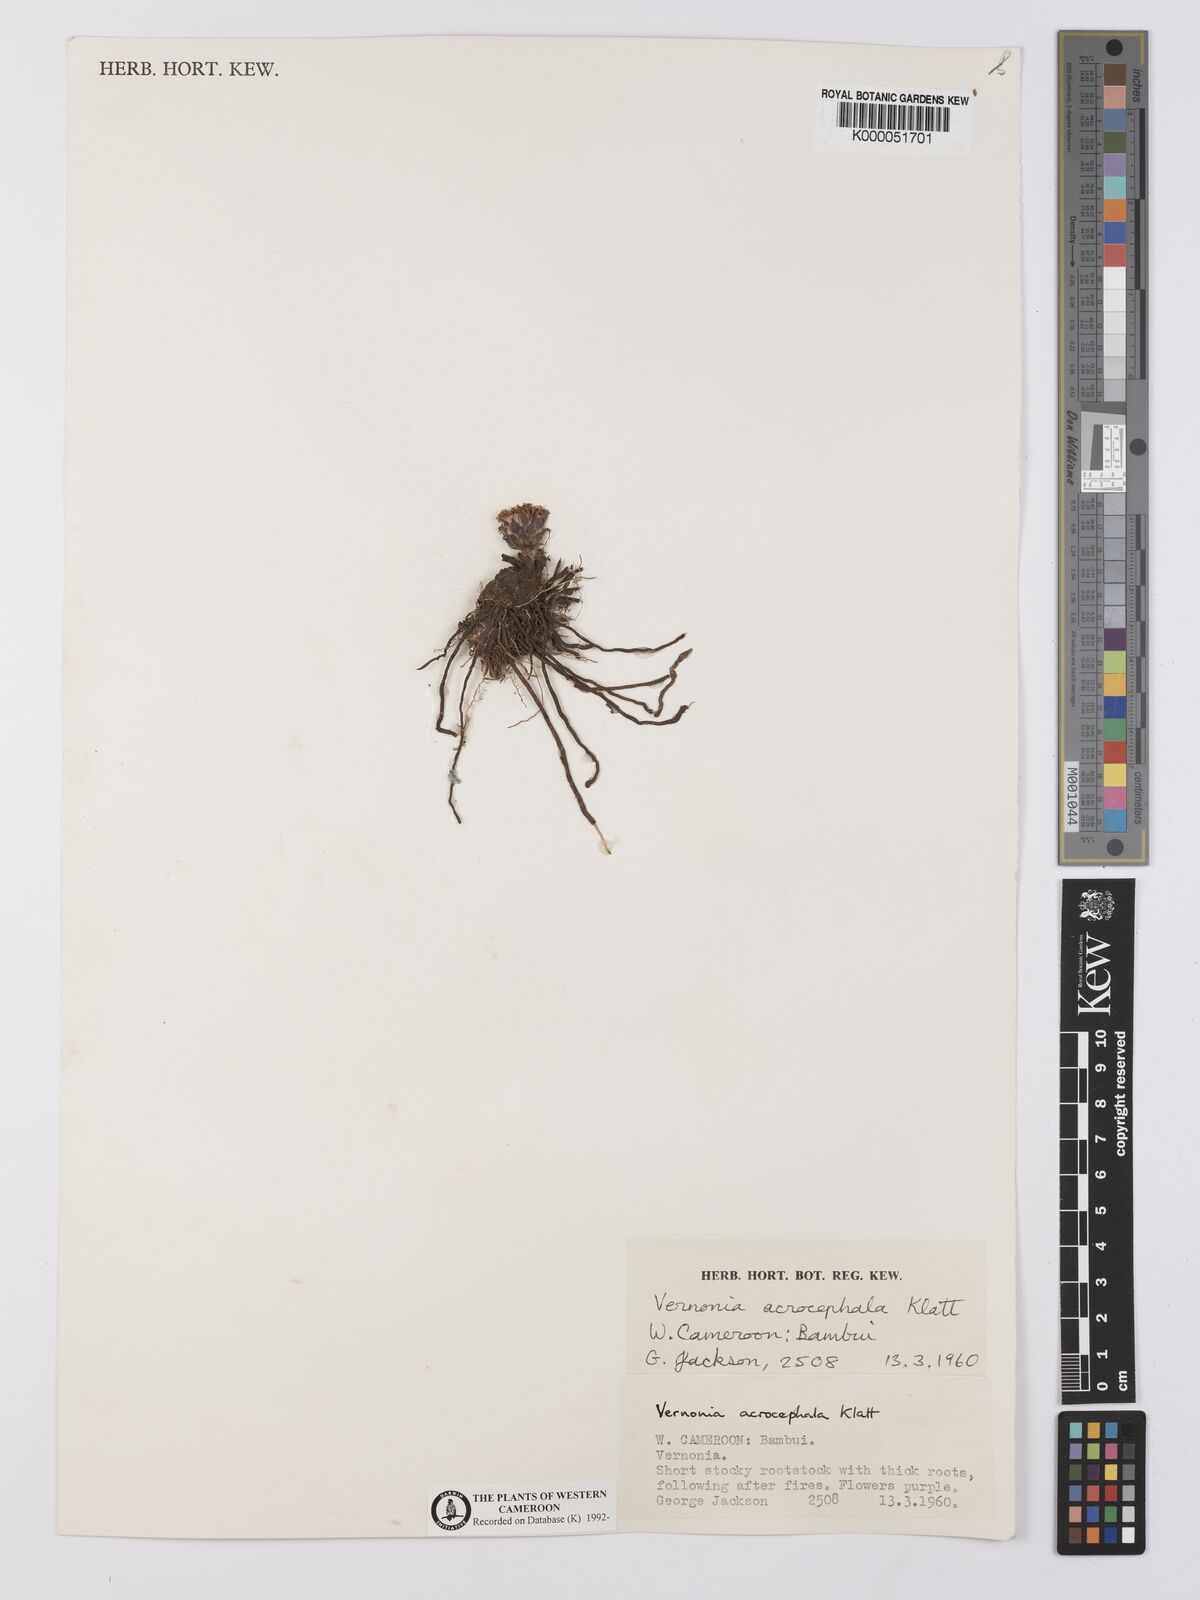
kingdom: Plantae
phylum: Tracheophyta
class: Magnoliopsida
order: Asterales
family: Asteraceae
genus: Vernonella
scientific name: Vernonella acrocephala
